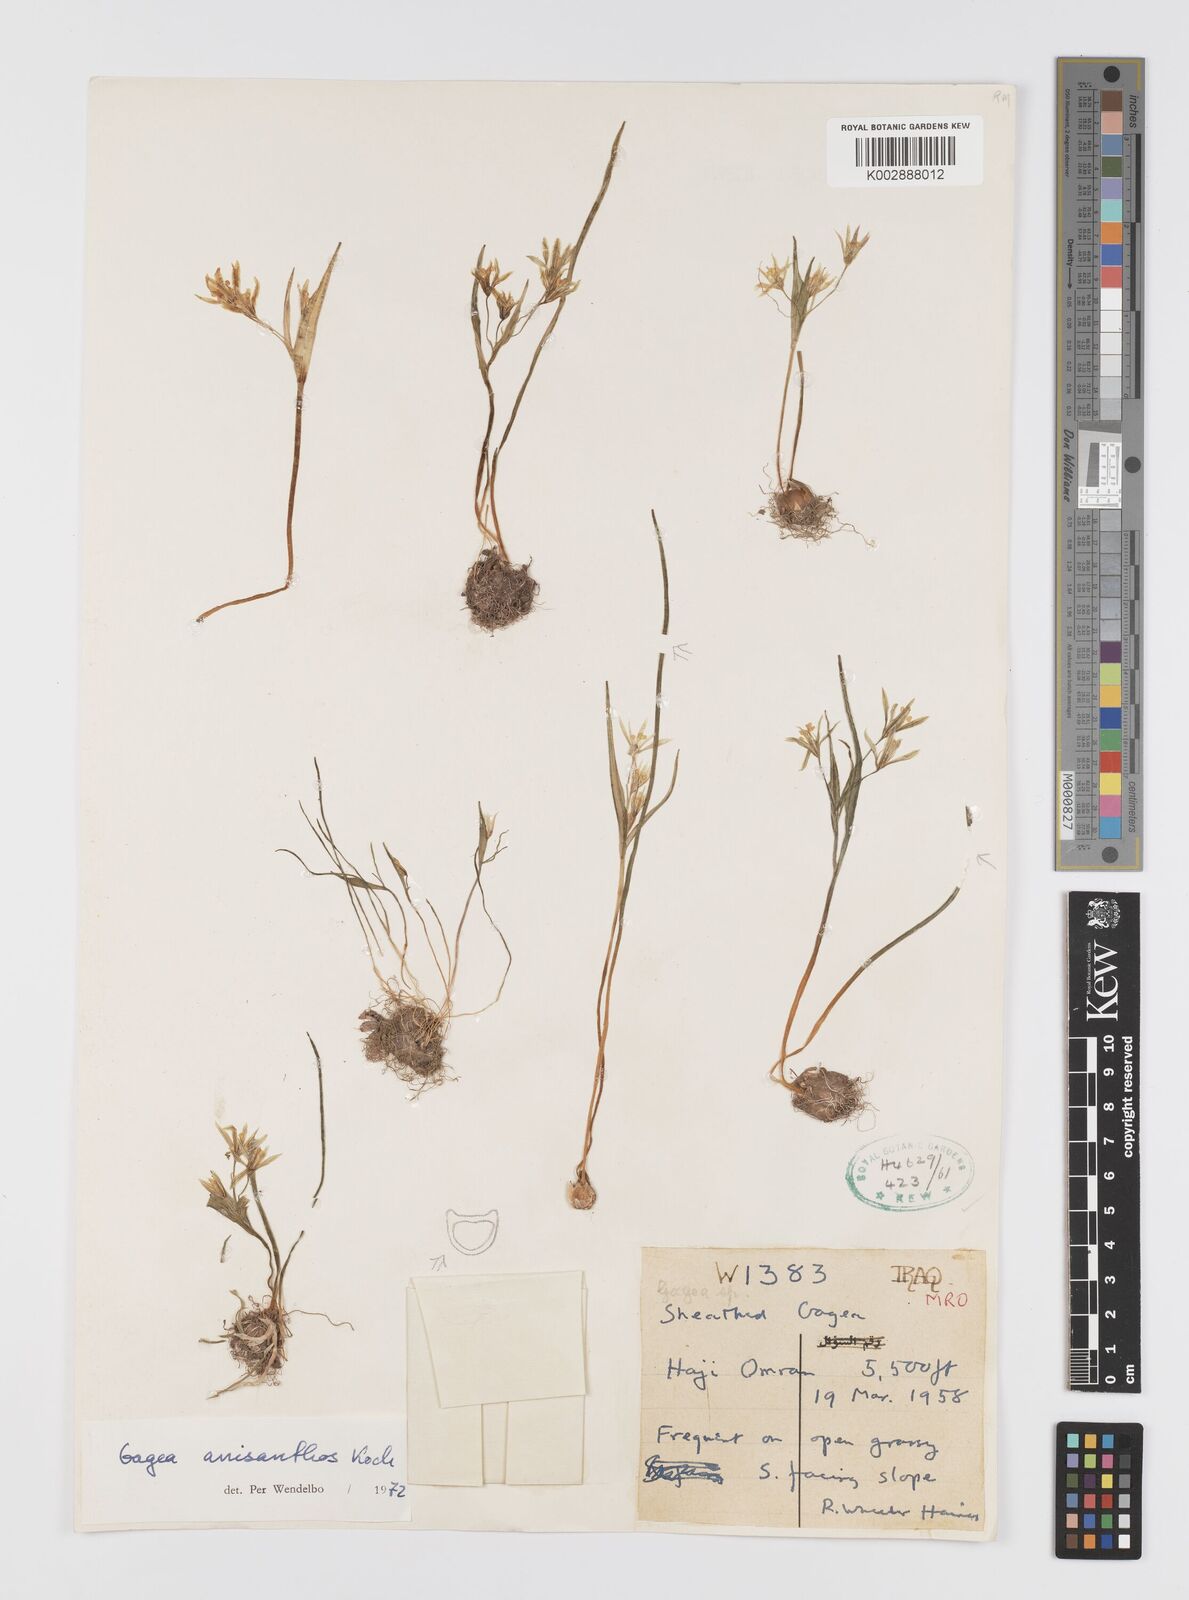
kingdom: Plantae
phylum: Tracheophyta
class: Liliopsida
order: Liliales
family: Liliaceae
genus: Gagea
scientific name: Gagea fragifera
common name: Lily
